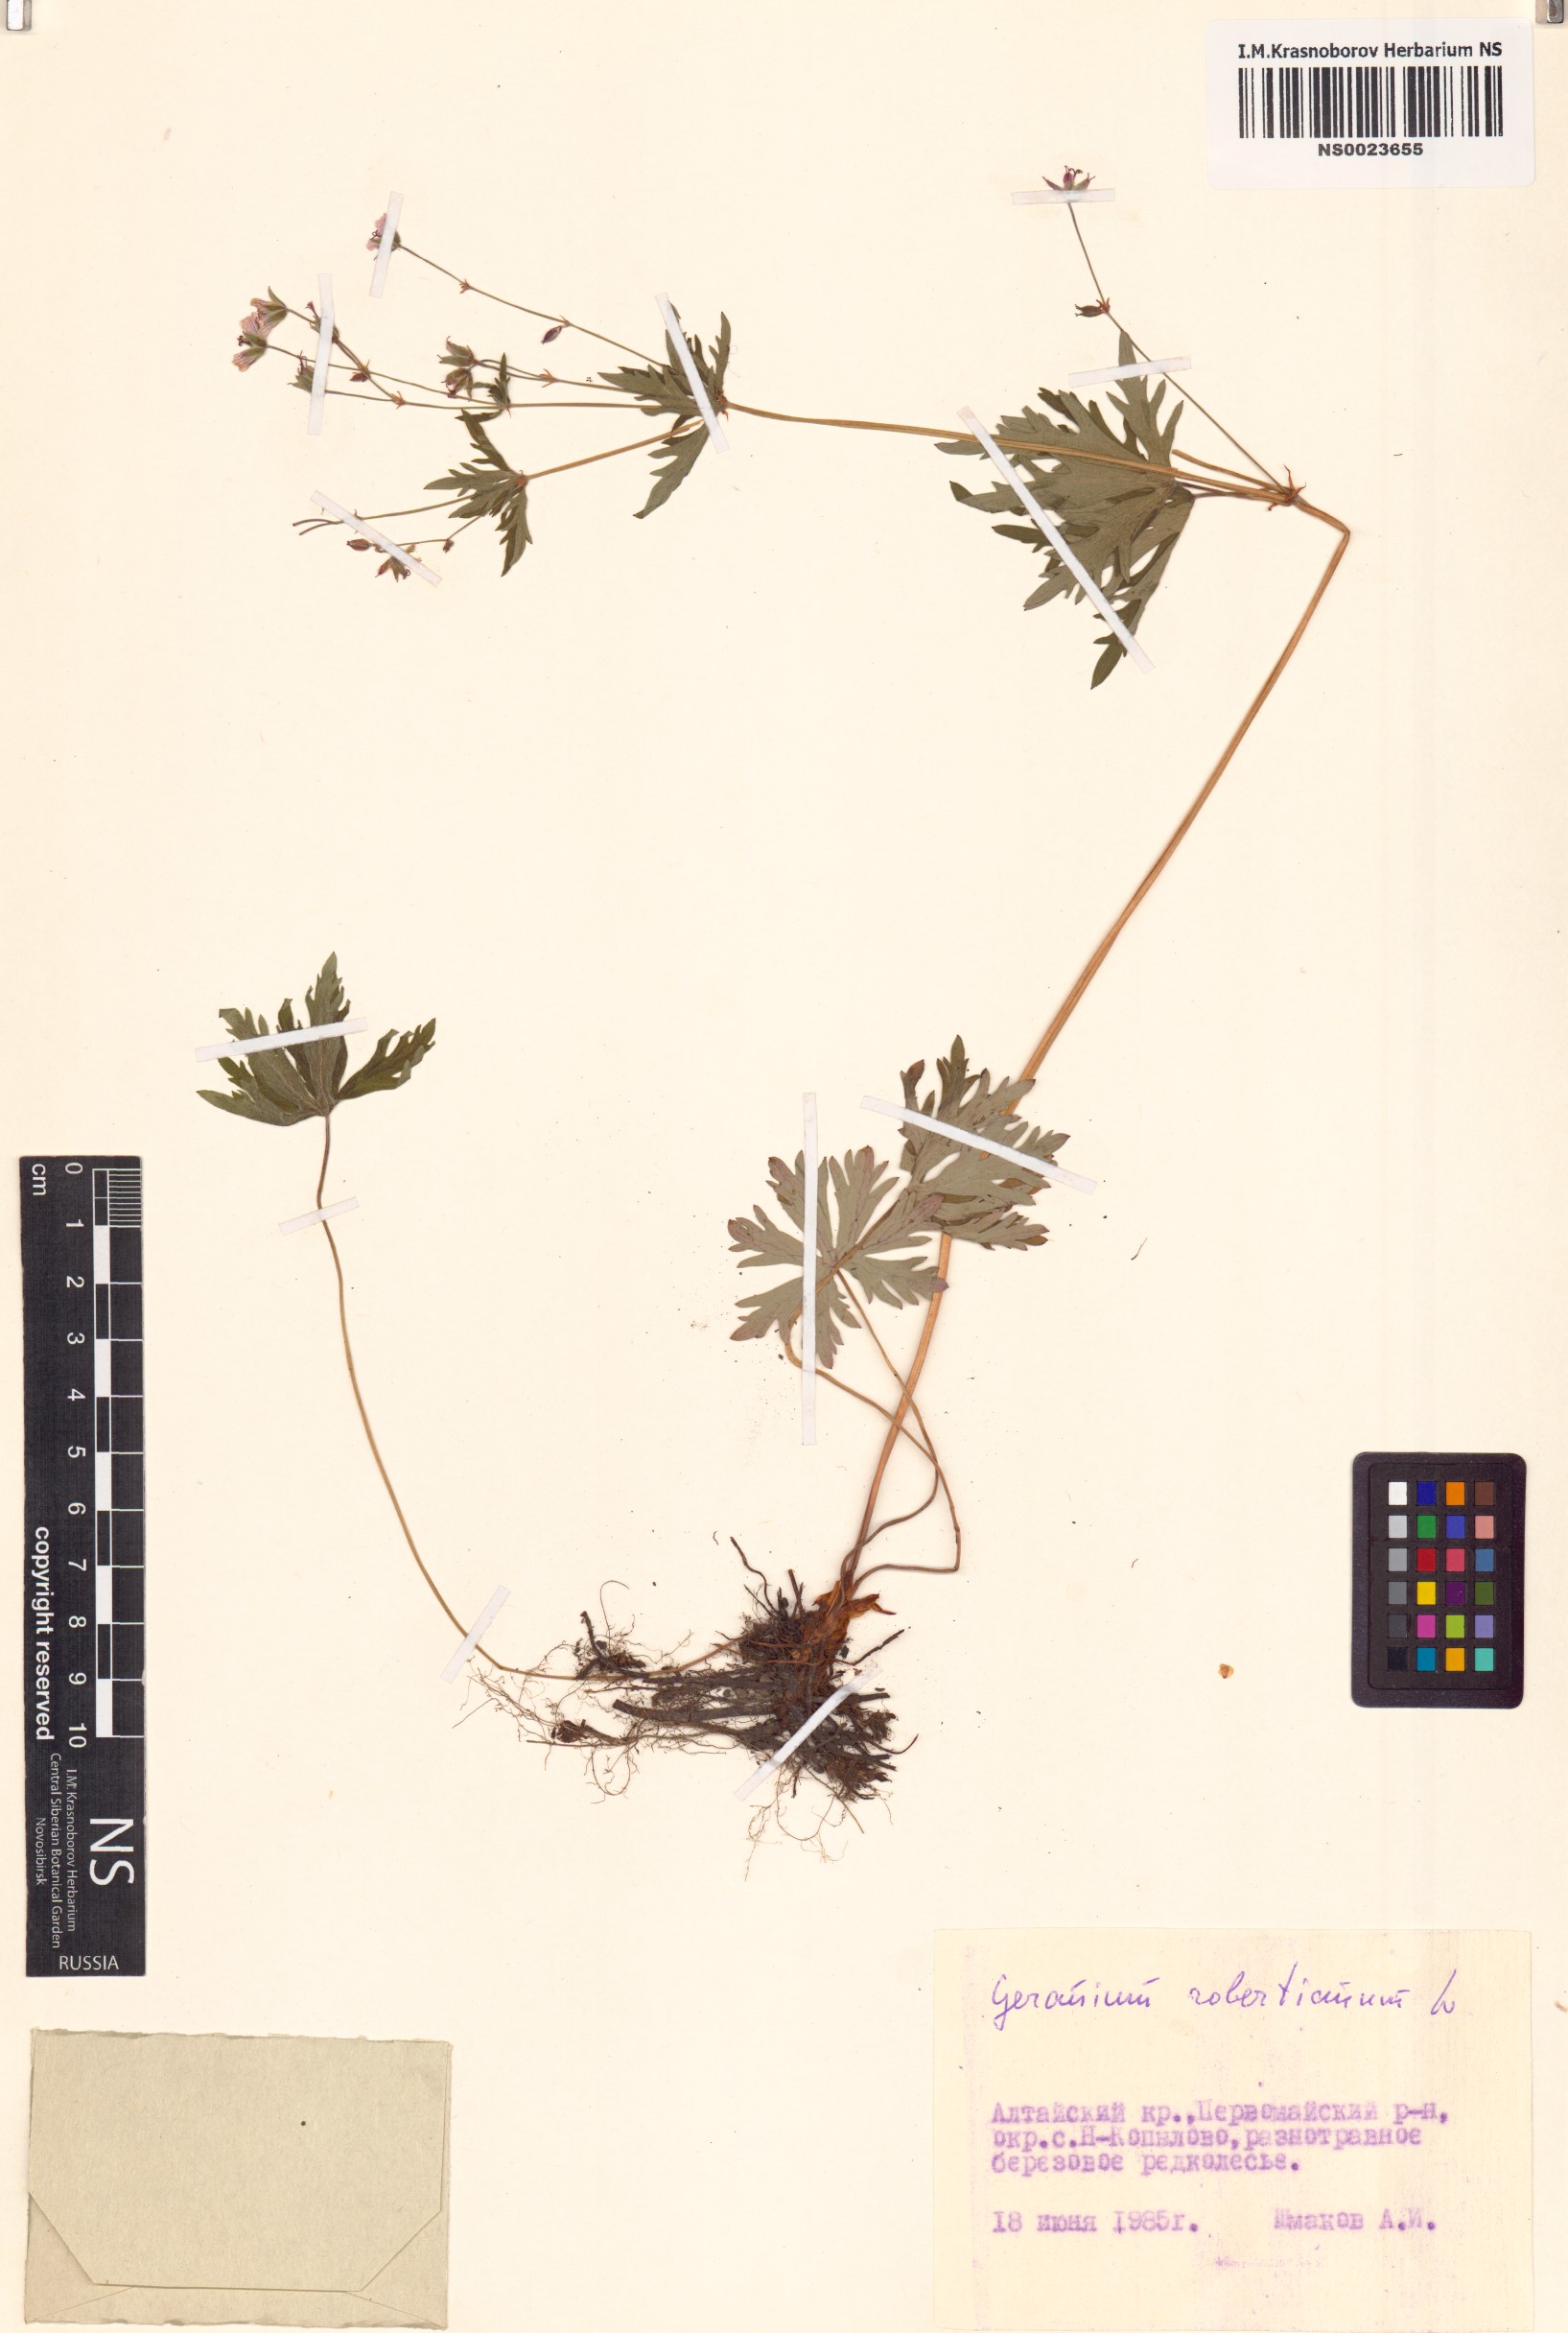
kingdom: Plantae
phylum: Tracheophyta
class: Magnoliopsida
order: Geraniales
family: Geraniaceae
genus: Geranium
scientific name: Geranium robertianum
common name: Herb-robert
